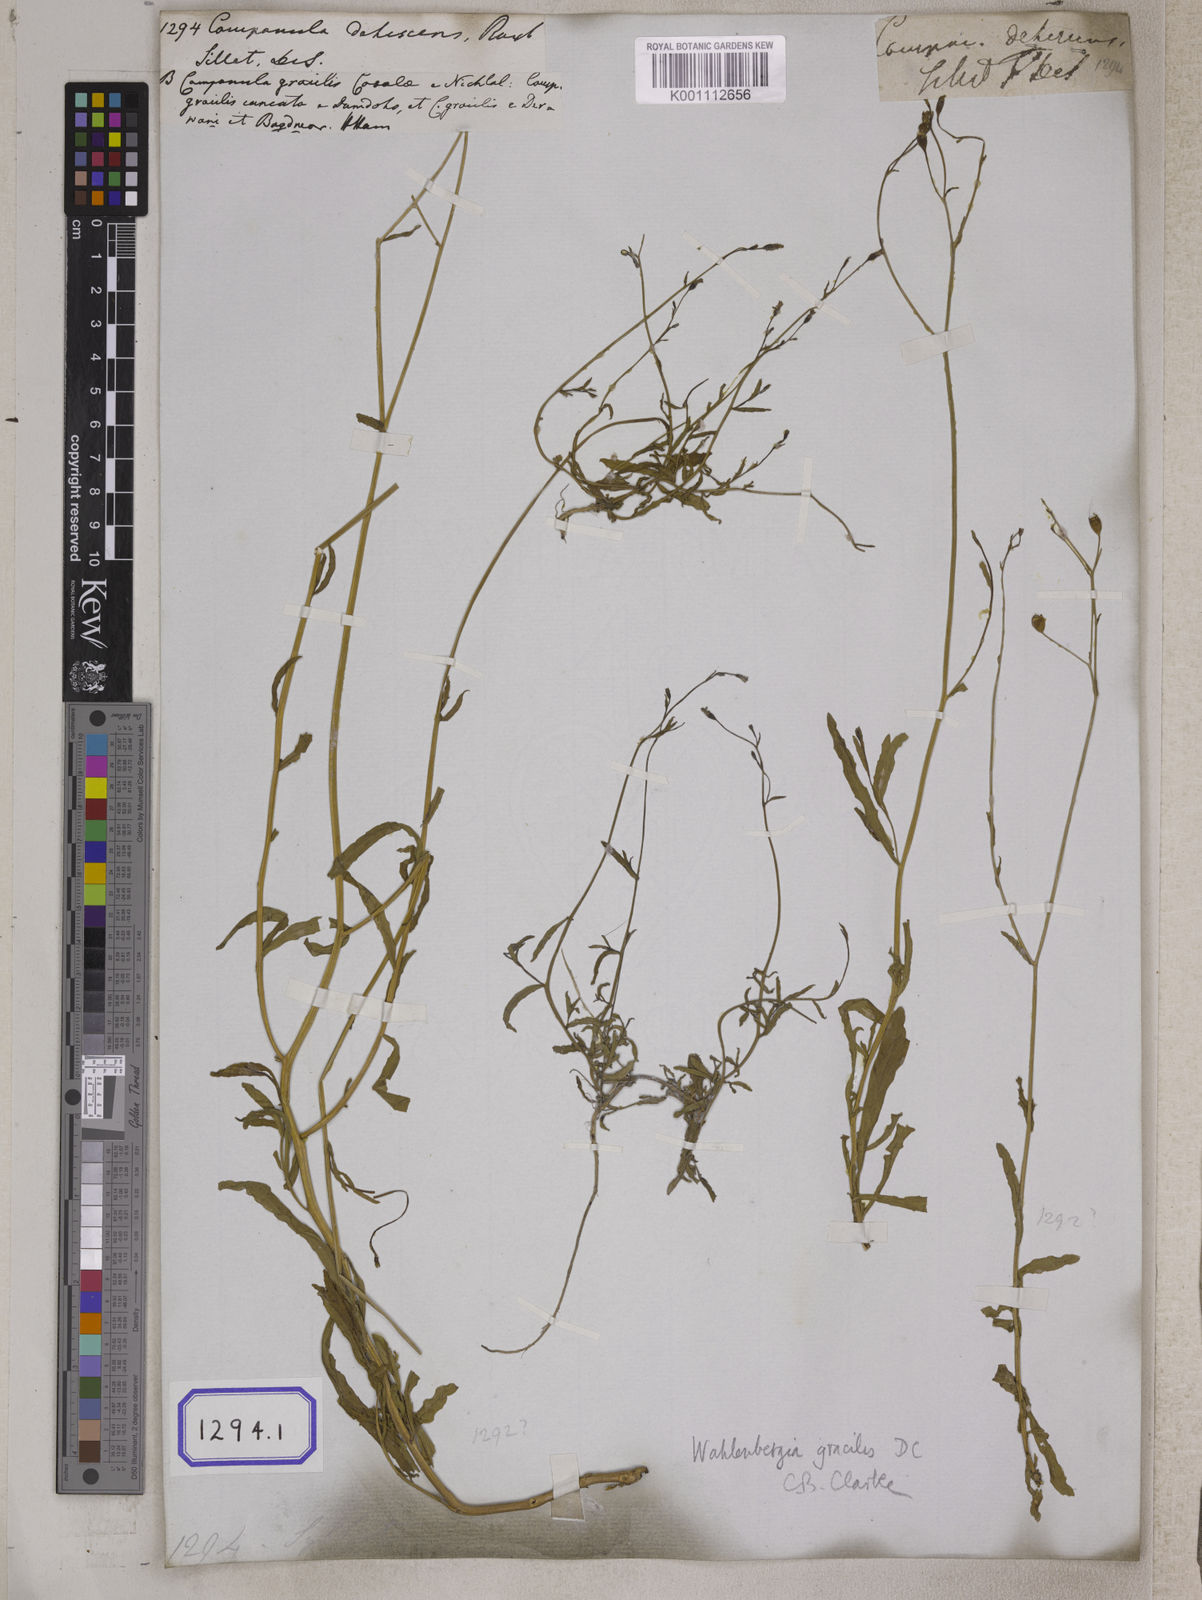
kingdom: Plantae
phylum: Tracheophyta
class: Magnoliopsida
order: Asterales
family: Campanulaceae
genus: Campanula
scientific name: Campanula
